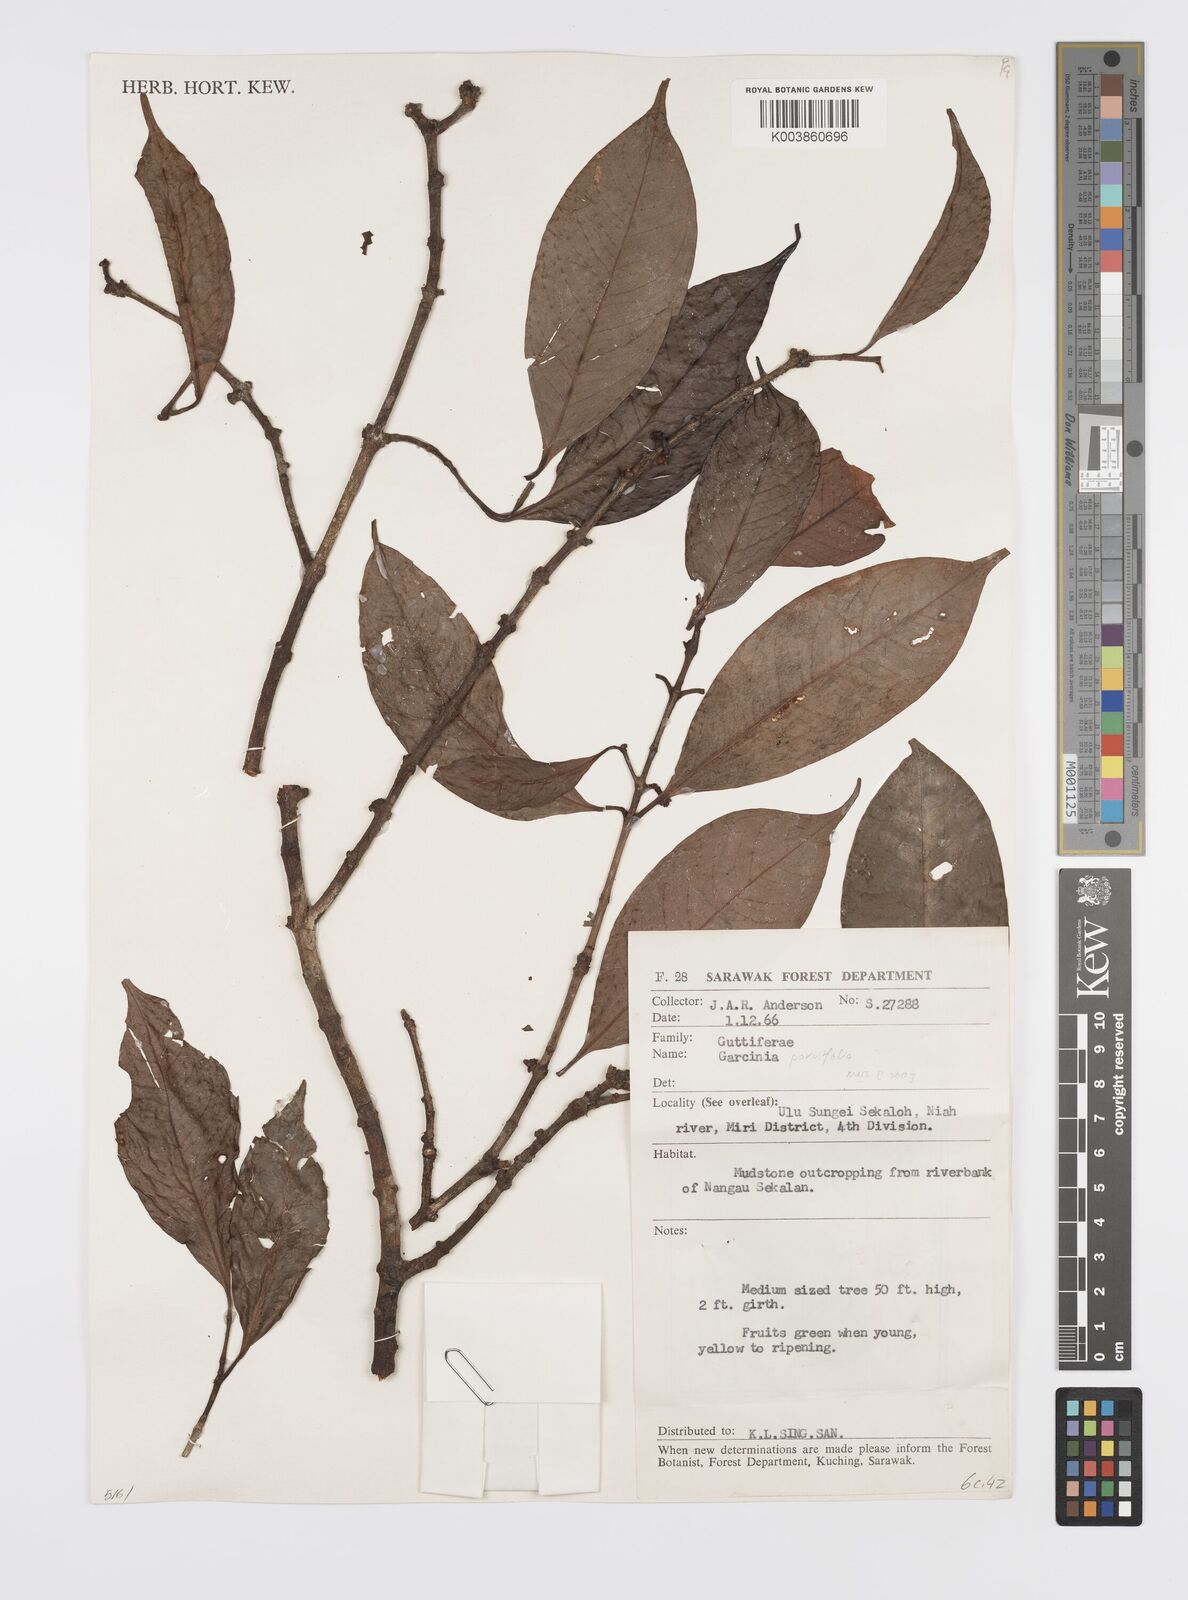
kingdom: Plantae
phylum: Tracheophyta
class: Magnoliopsida
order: Malpighiales
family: Clusiaceae
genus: Garcinia
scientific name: Garcinia parvifolia
